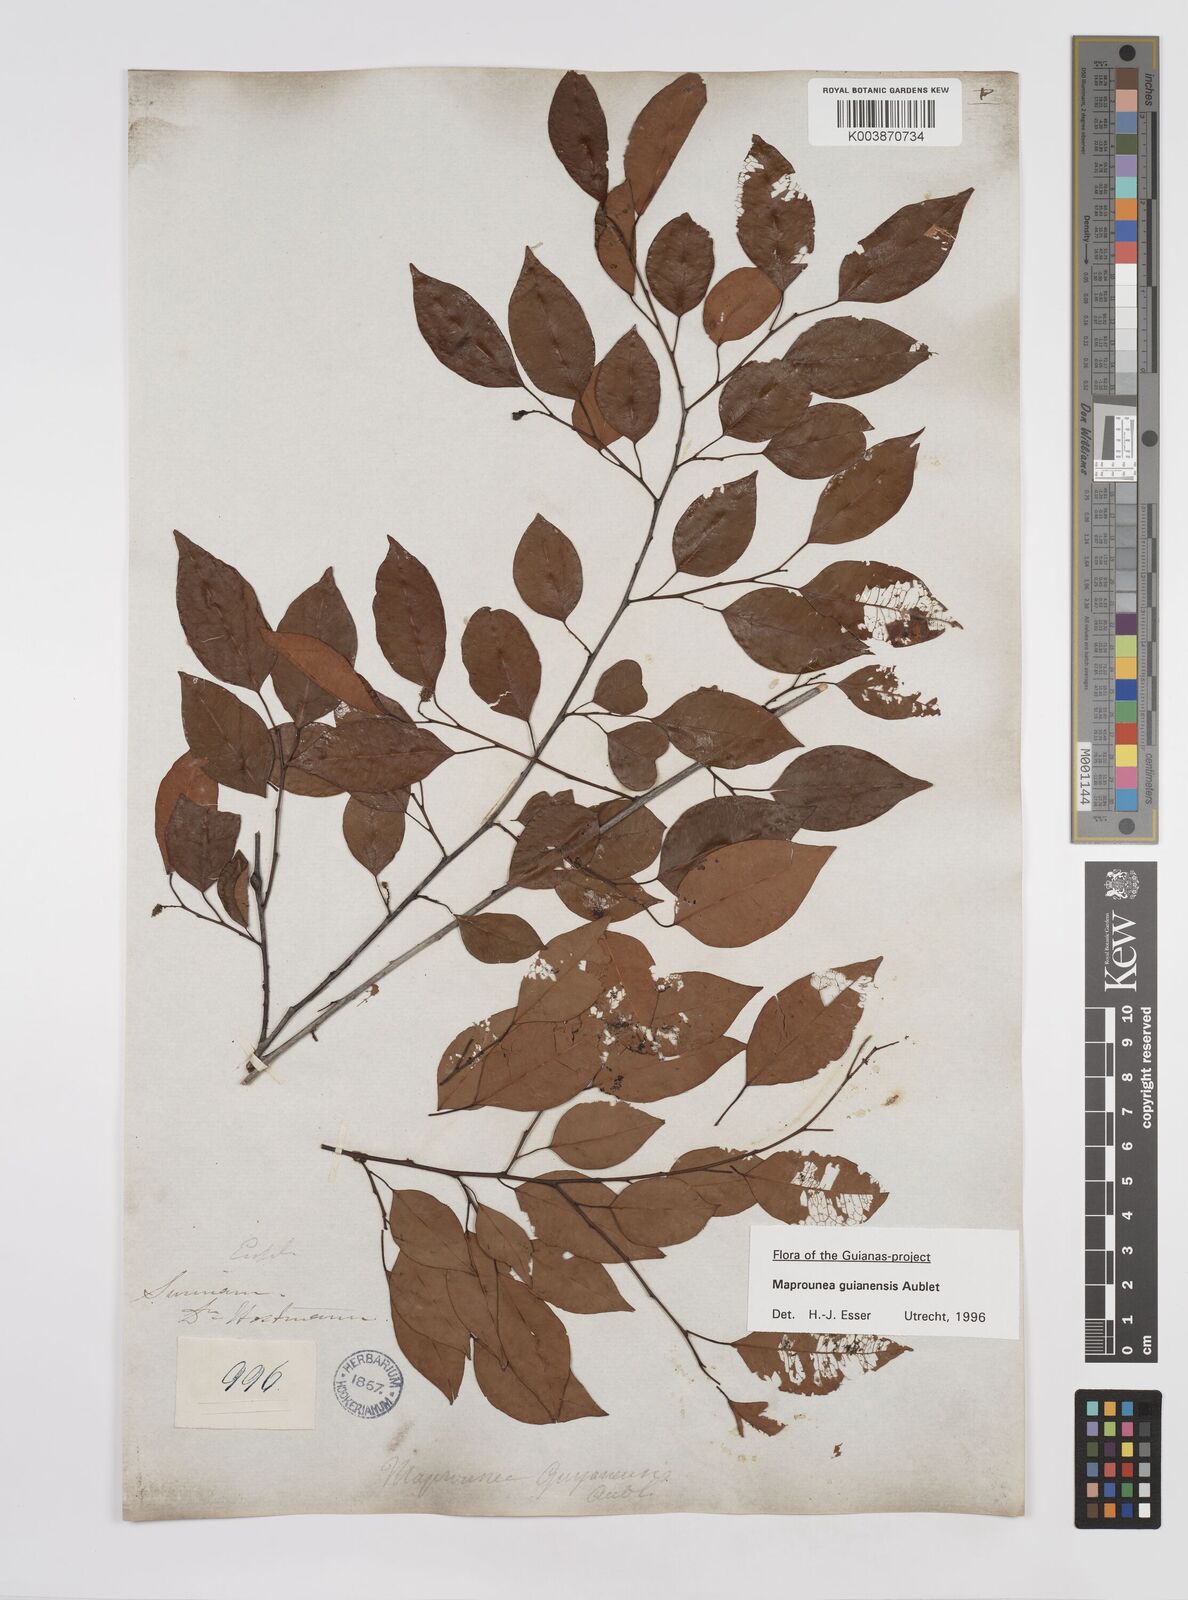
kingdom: Plantae
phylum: Tracheophyta
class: Magnoliopsida
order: Malpighiales
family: Euphorbiaceae
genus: Maprounea
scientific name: Maprounea guianensis
